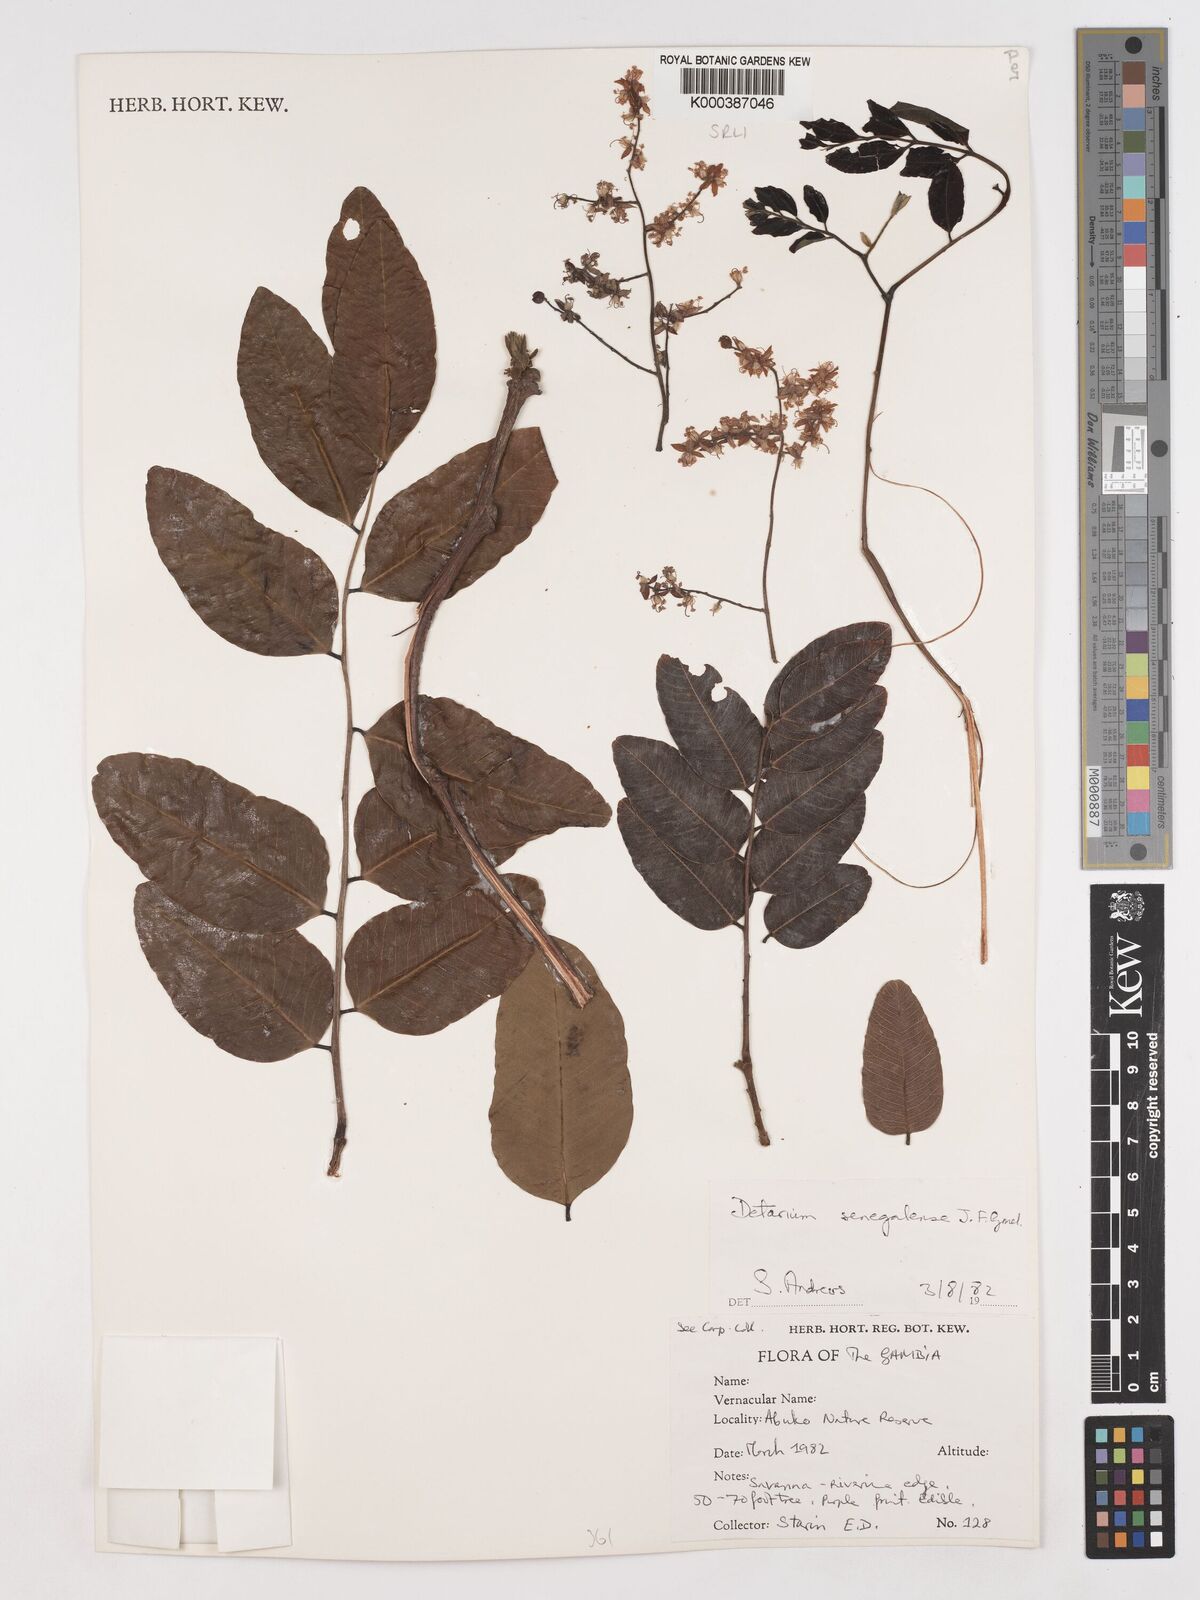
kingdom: Plantae
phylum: Tracheophyta
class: Magnoliopsida
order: Fabales
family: Fabaceae
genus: Detarium
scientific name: Detarium microcarpum
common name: Sweet dattock
